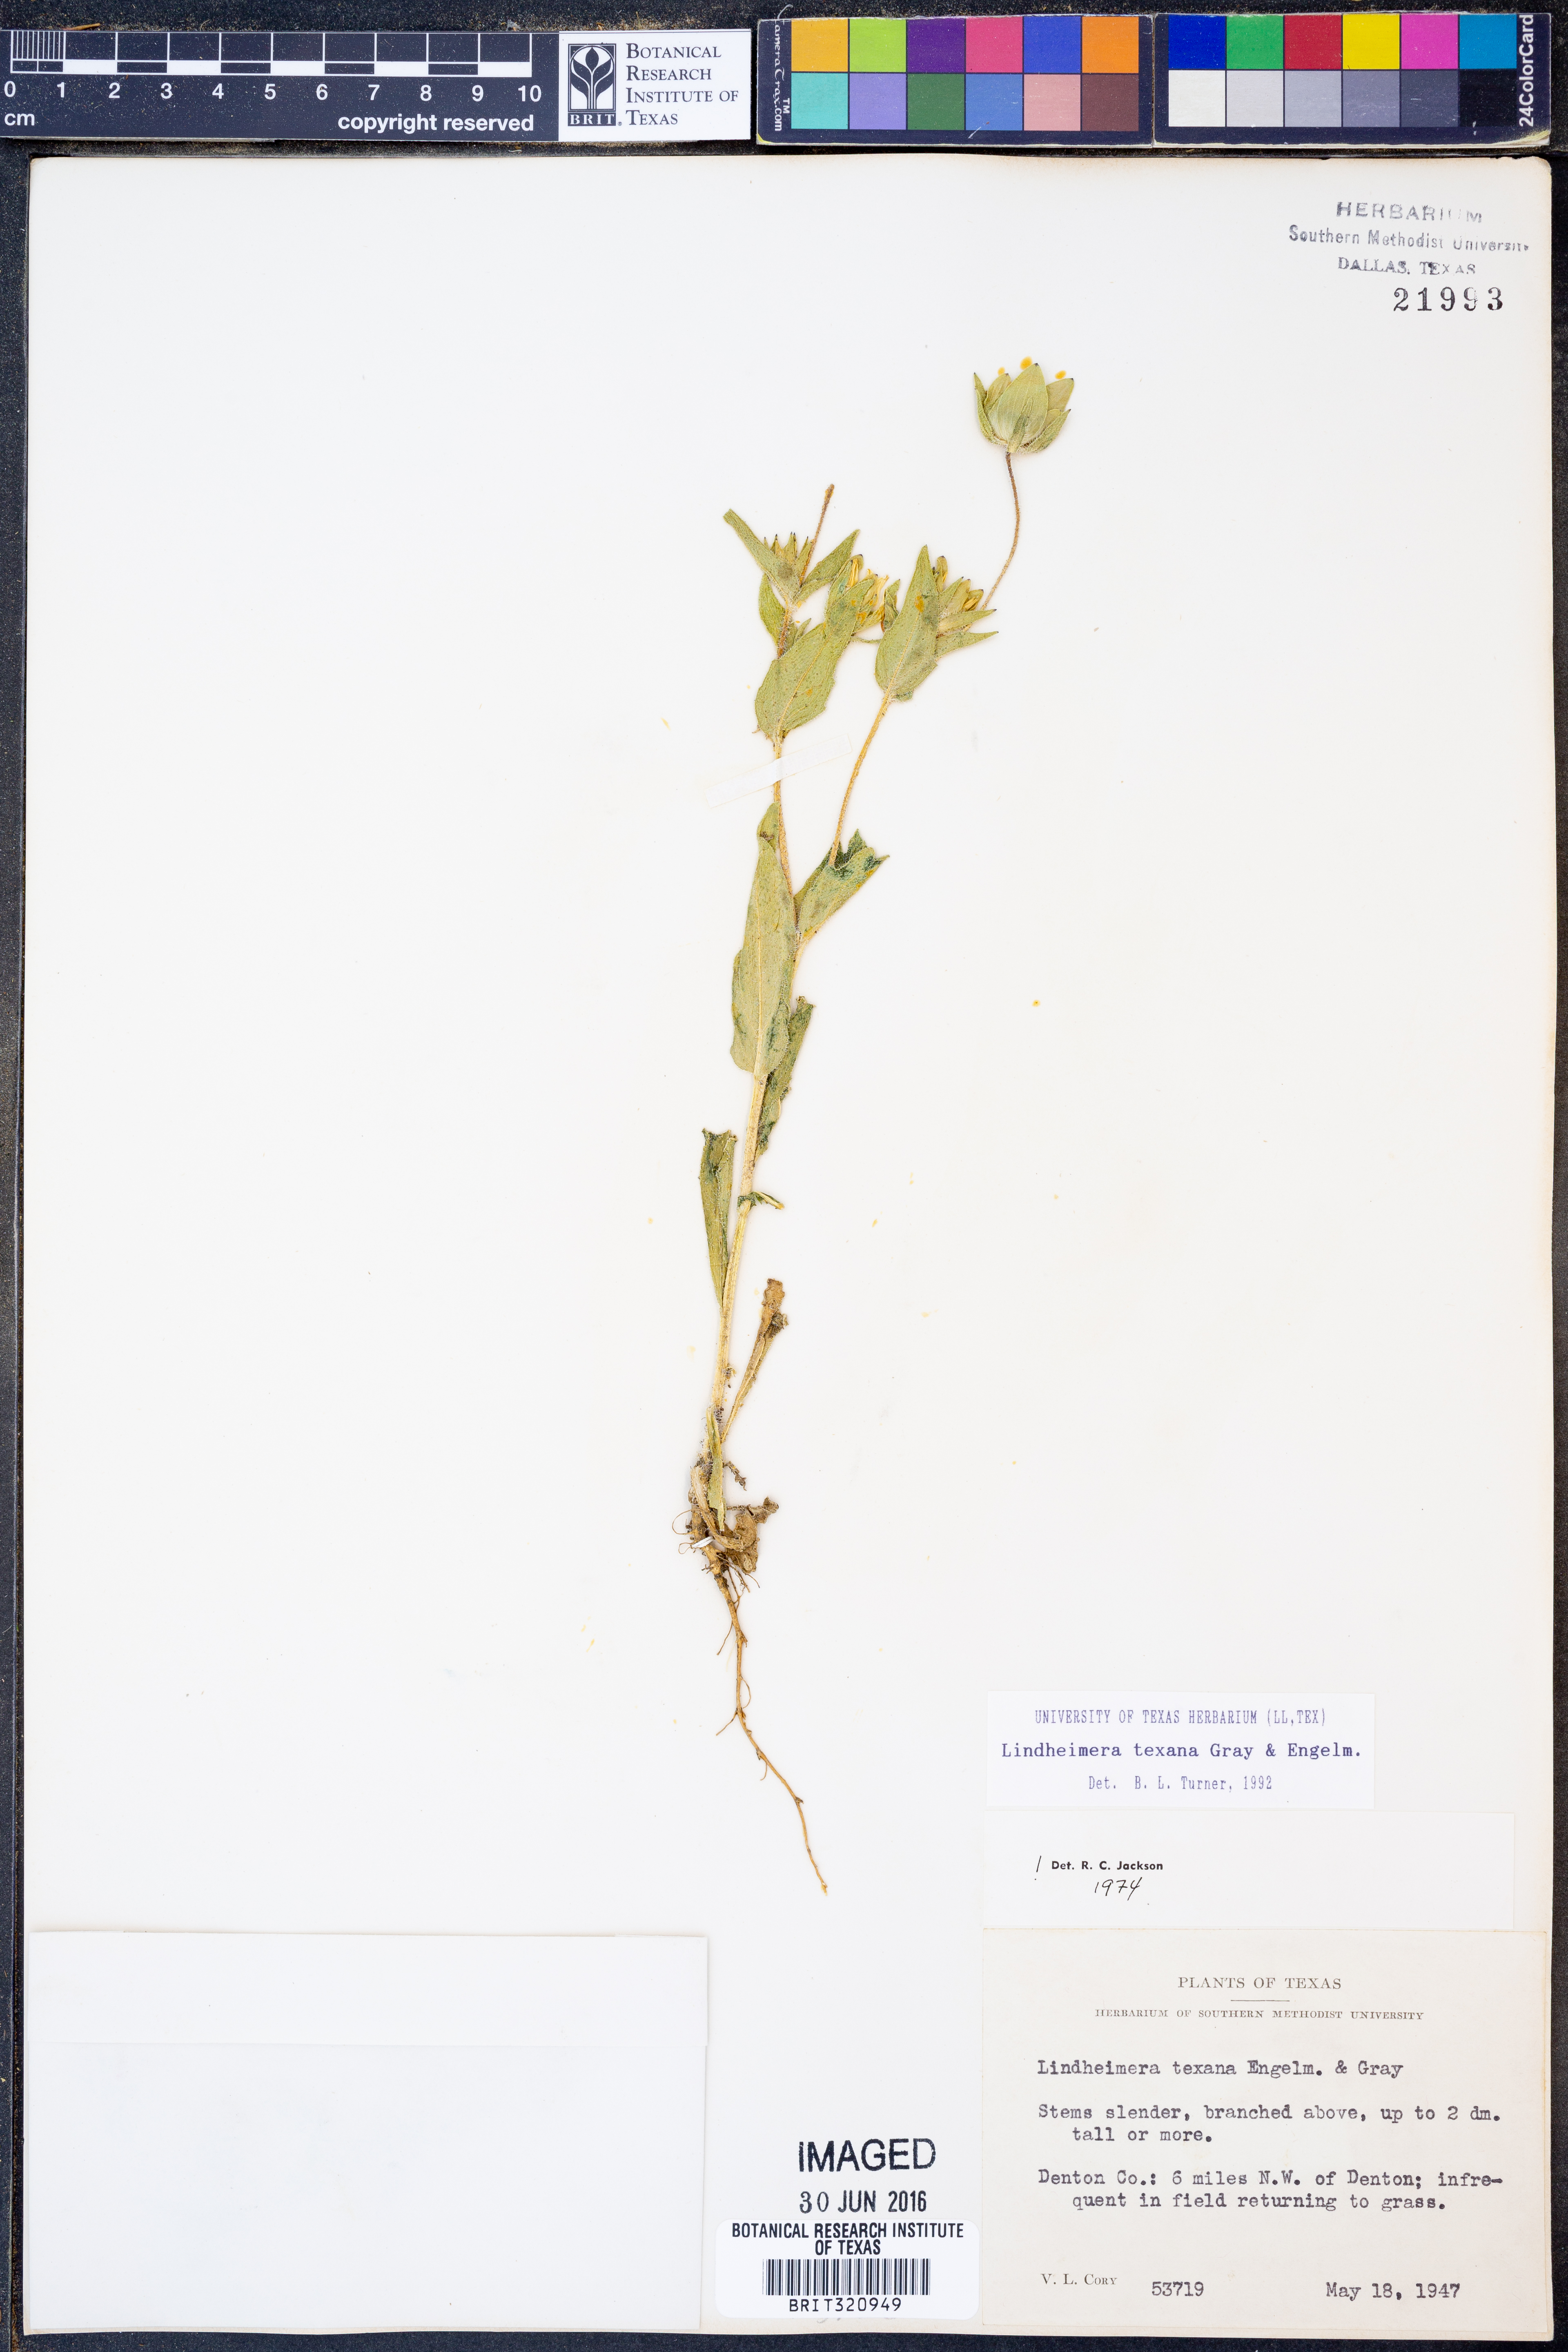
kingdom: Plantae
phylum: Tracheophyta
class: Magnoliopsida
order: Asterales
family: Asteraceae
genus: Lindheimera
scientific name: Lindheimera texana
